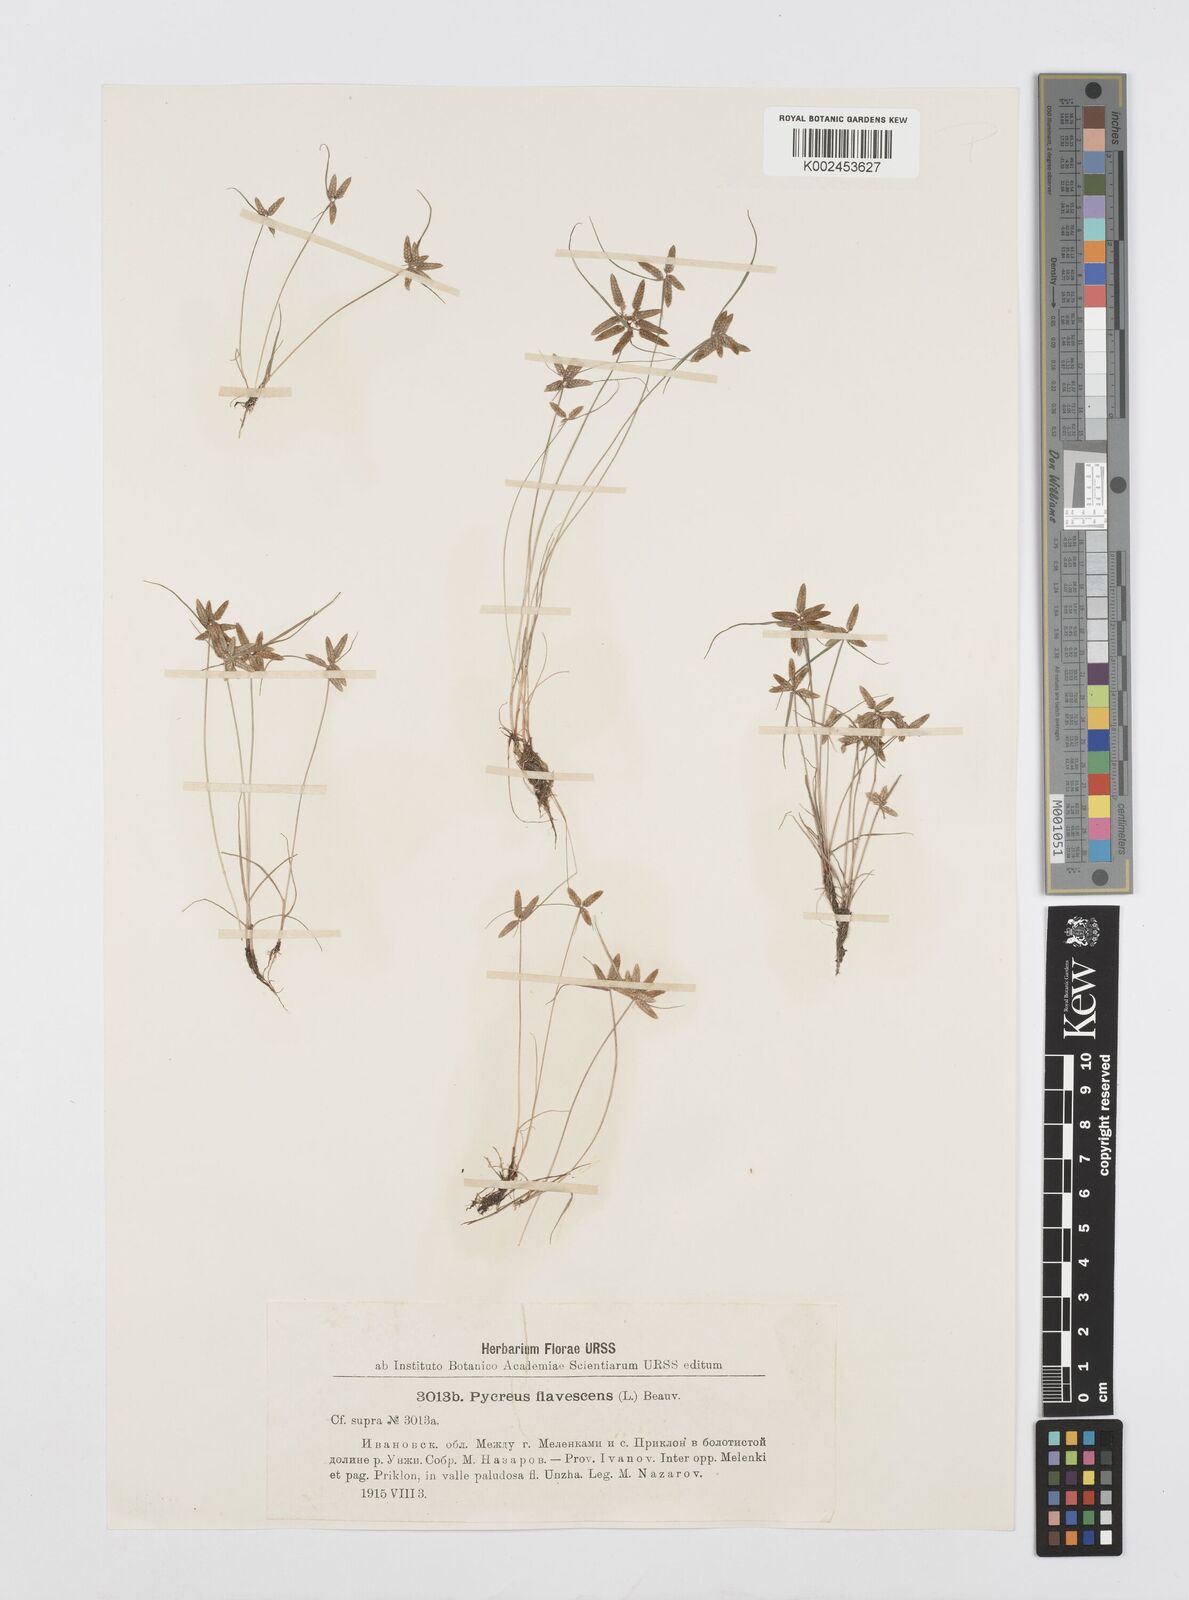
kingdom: Plantae
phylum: Tracheophyta
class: Liliopsida
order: Poales
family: Cyperaceae
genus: Cyperus
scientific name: Cyperus flavescens
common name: Yellow galingale
